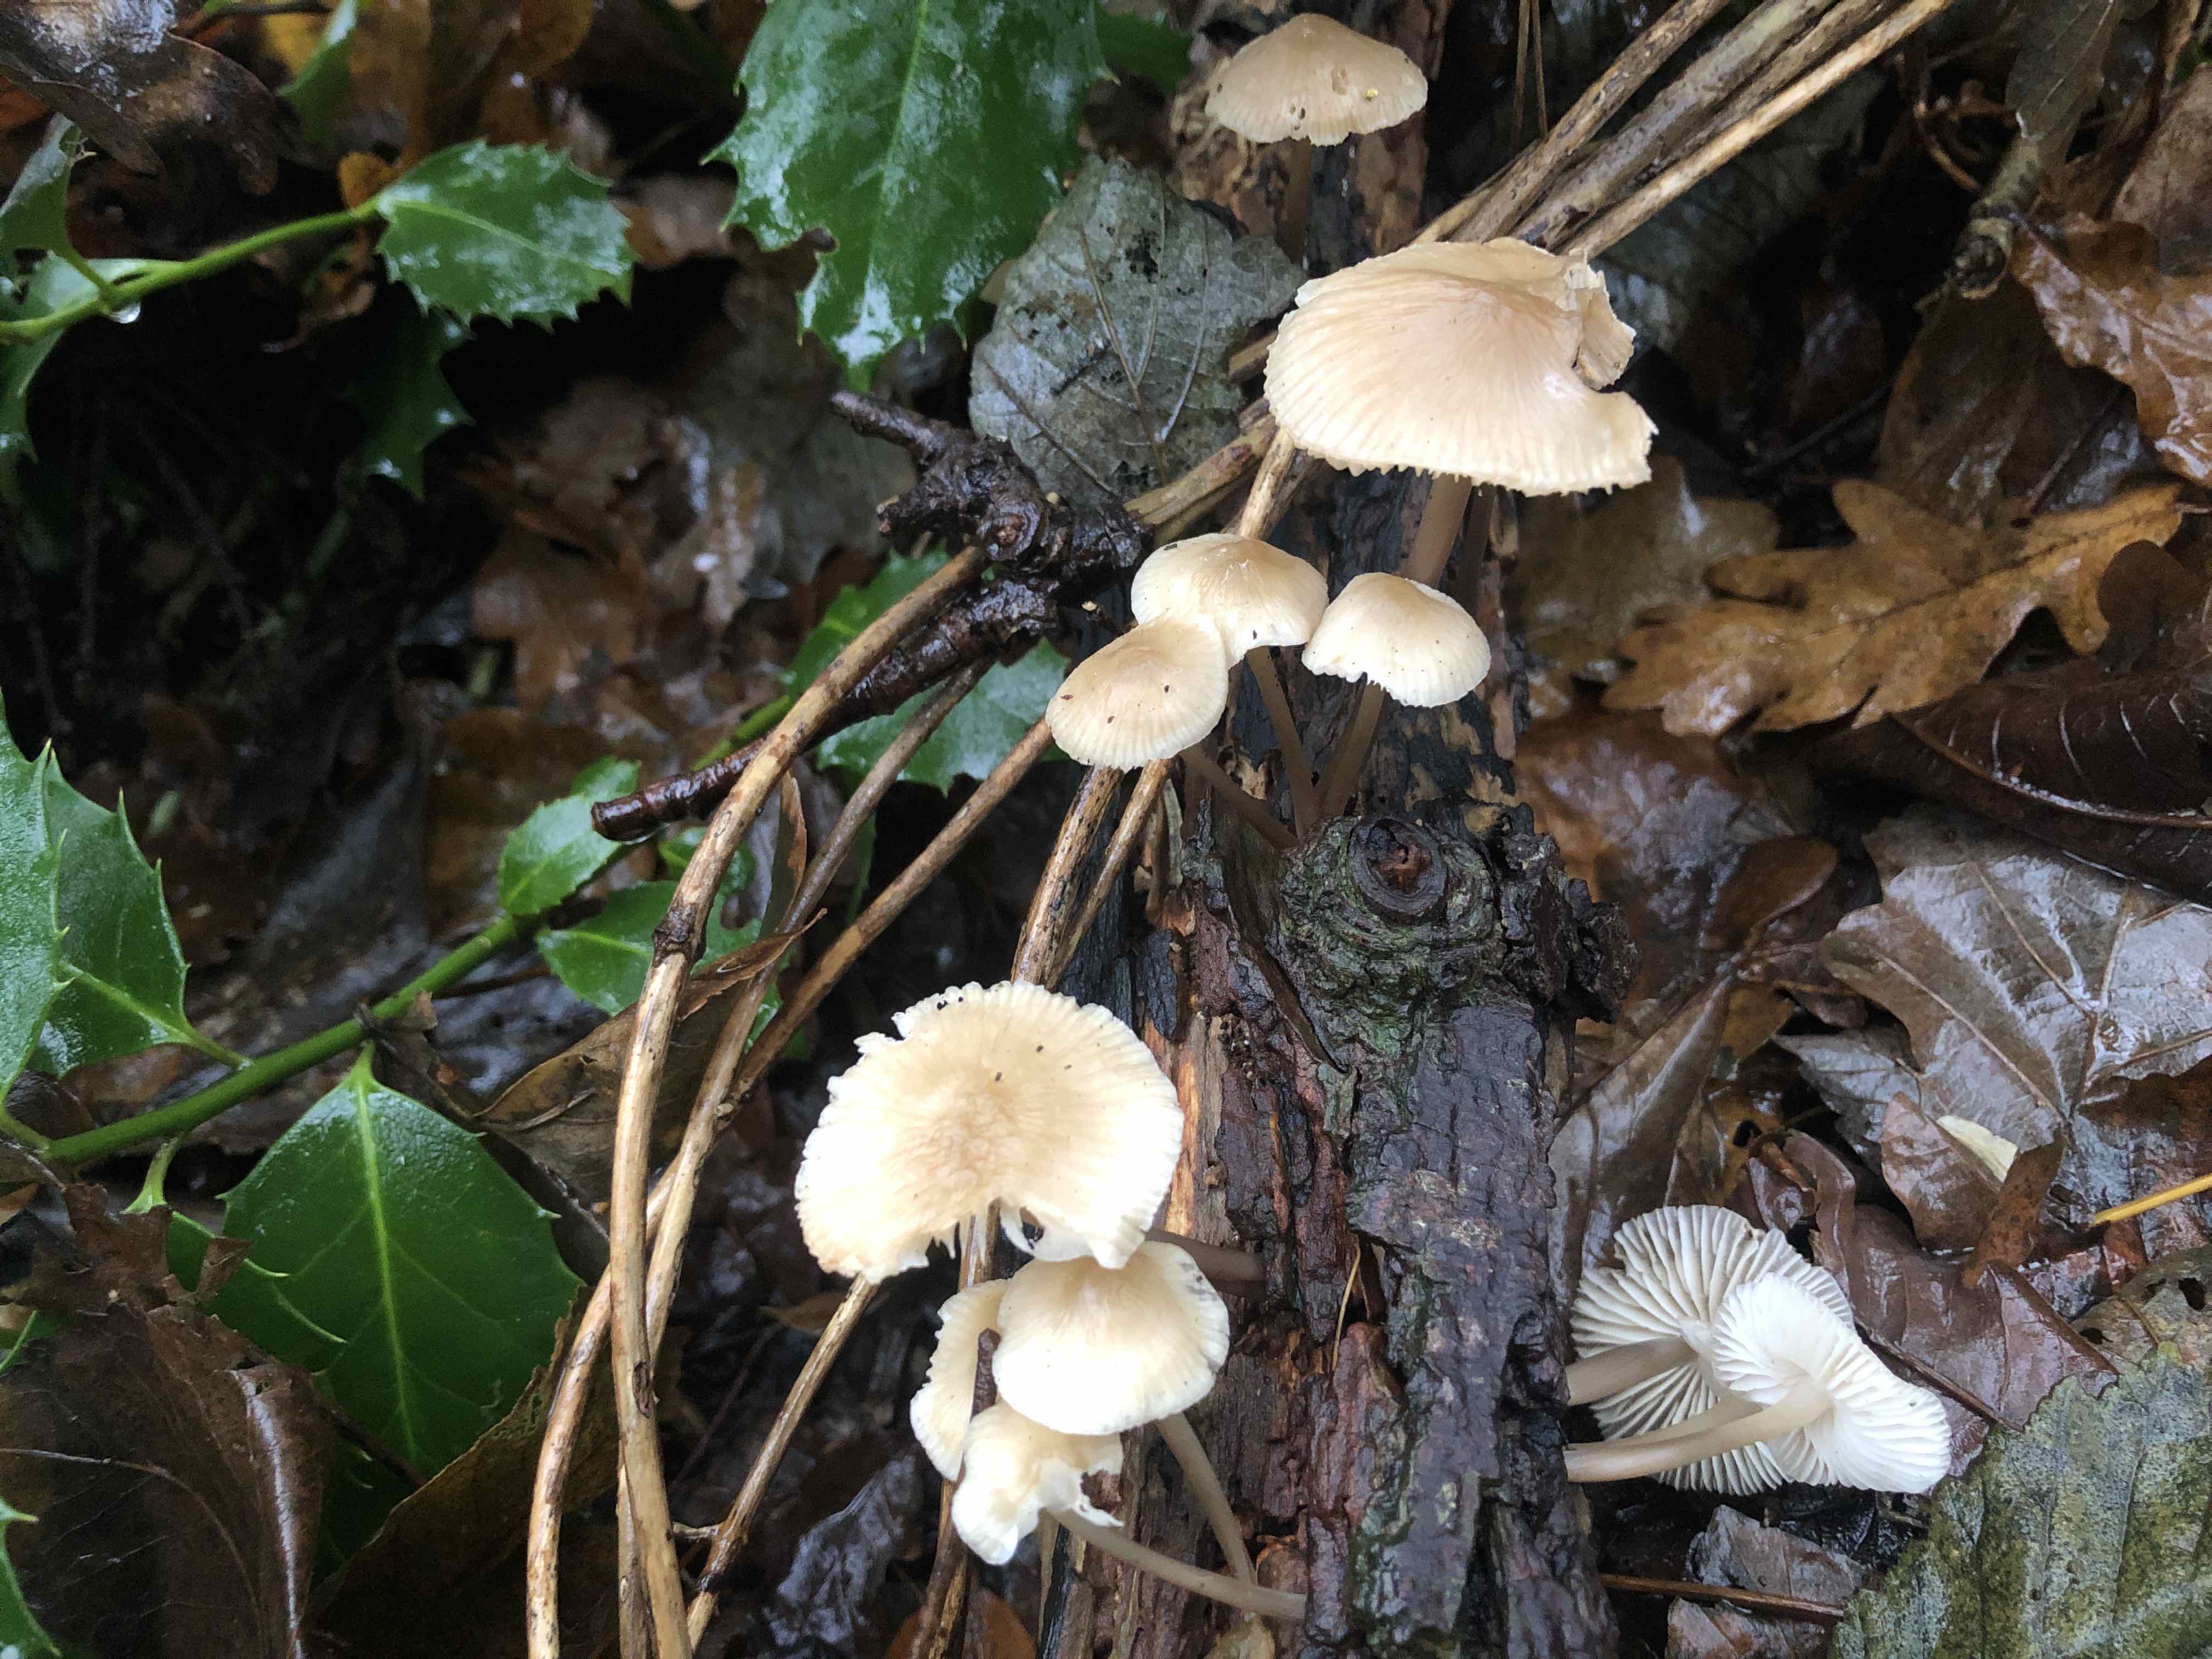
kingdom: Fungi
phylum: Basidiomycota
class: Agaricomycetes
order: Agaricales
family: Mycenaceae
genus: Mycena
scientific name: Mycena galericulata
